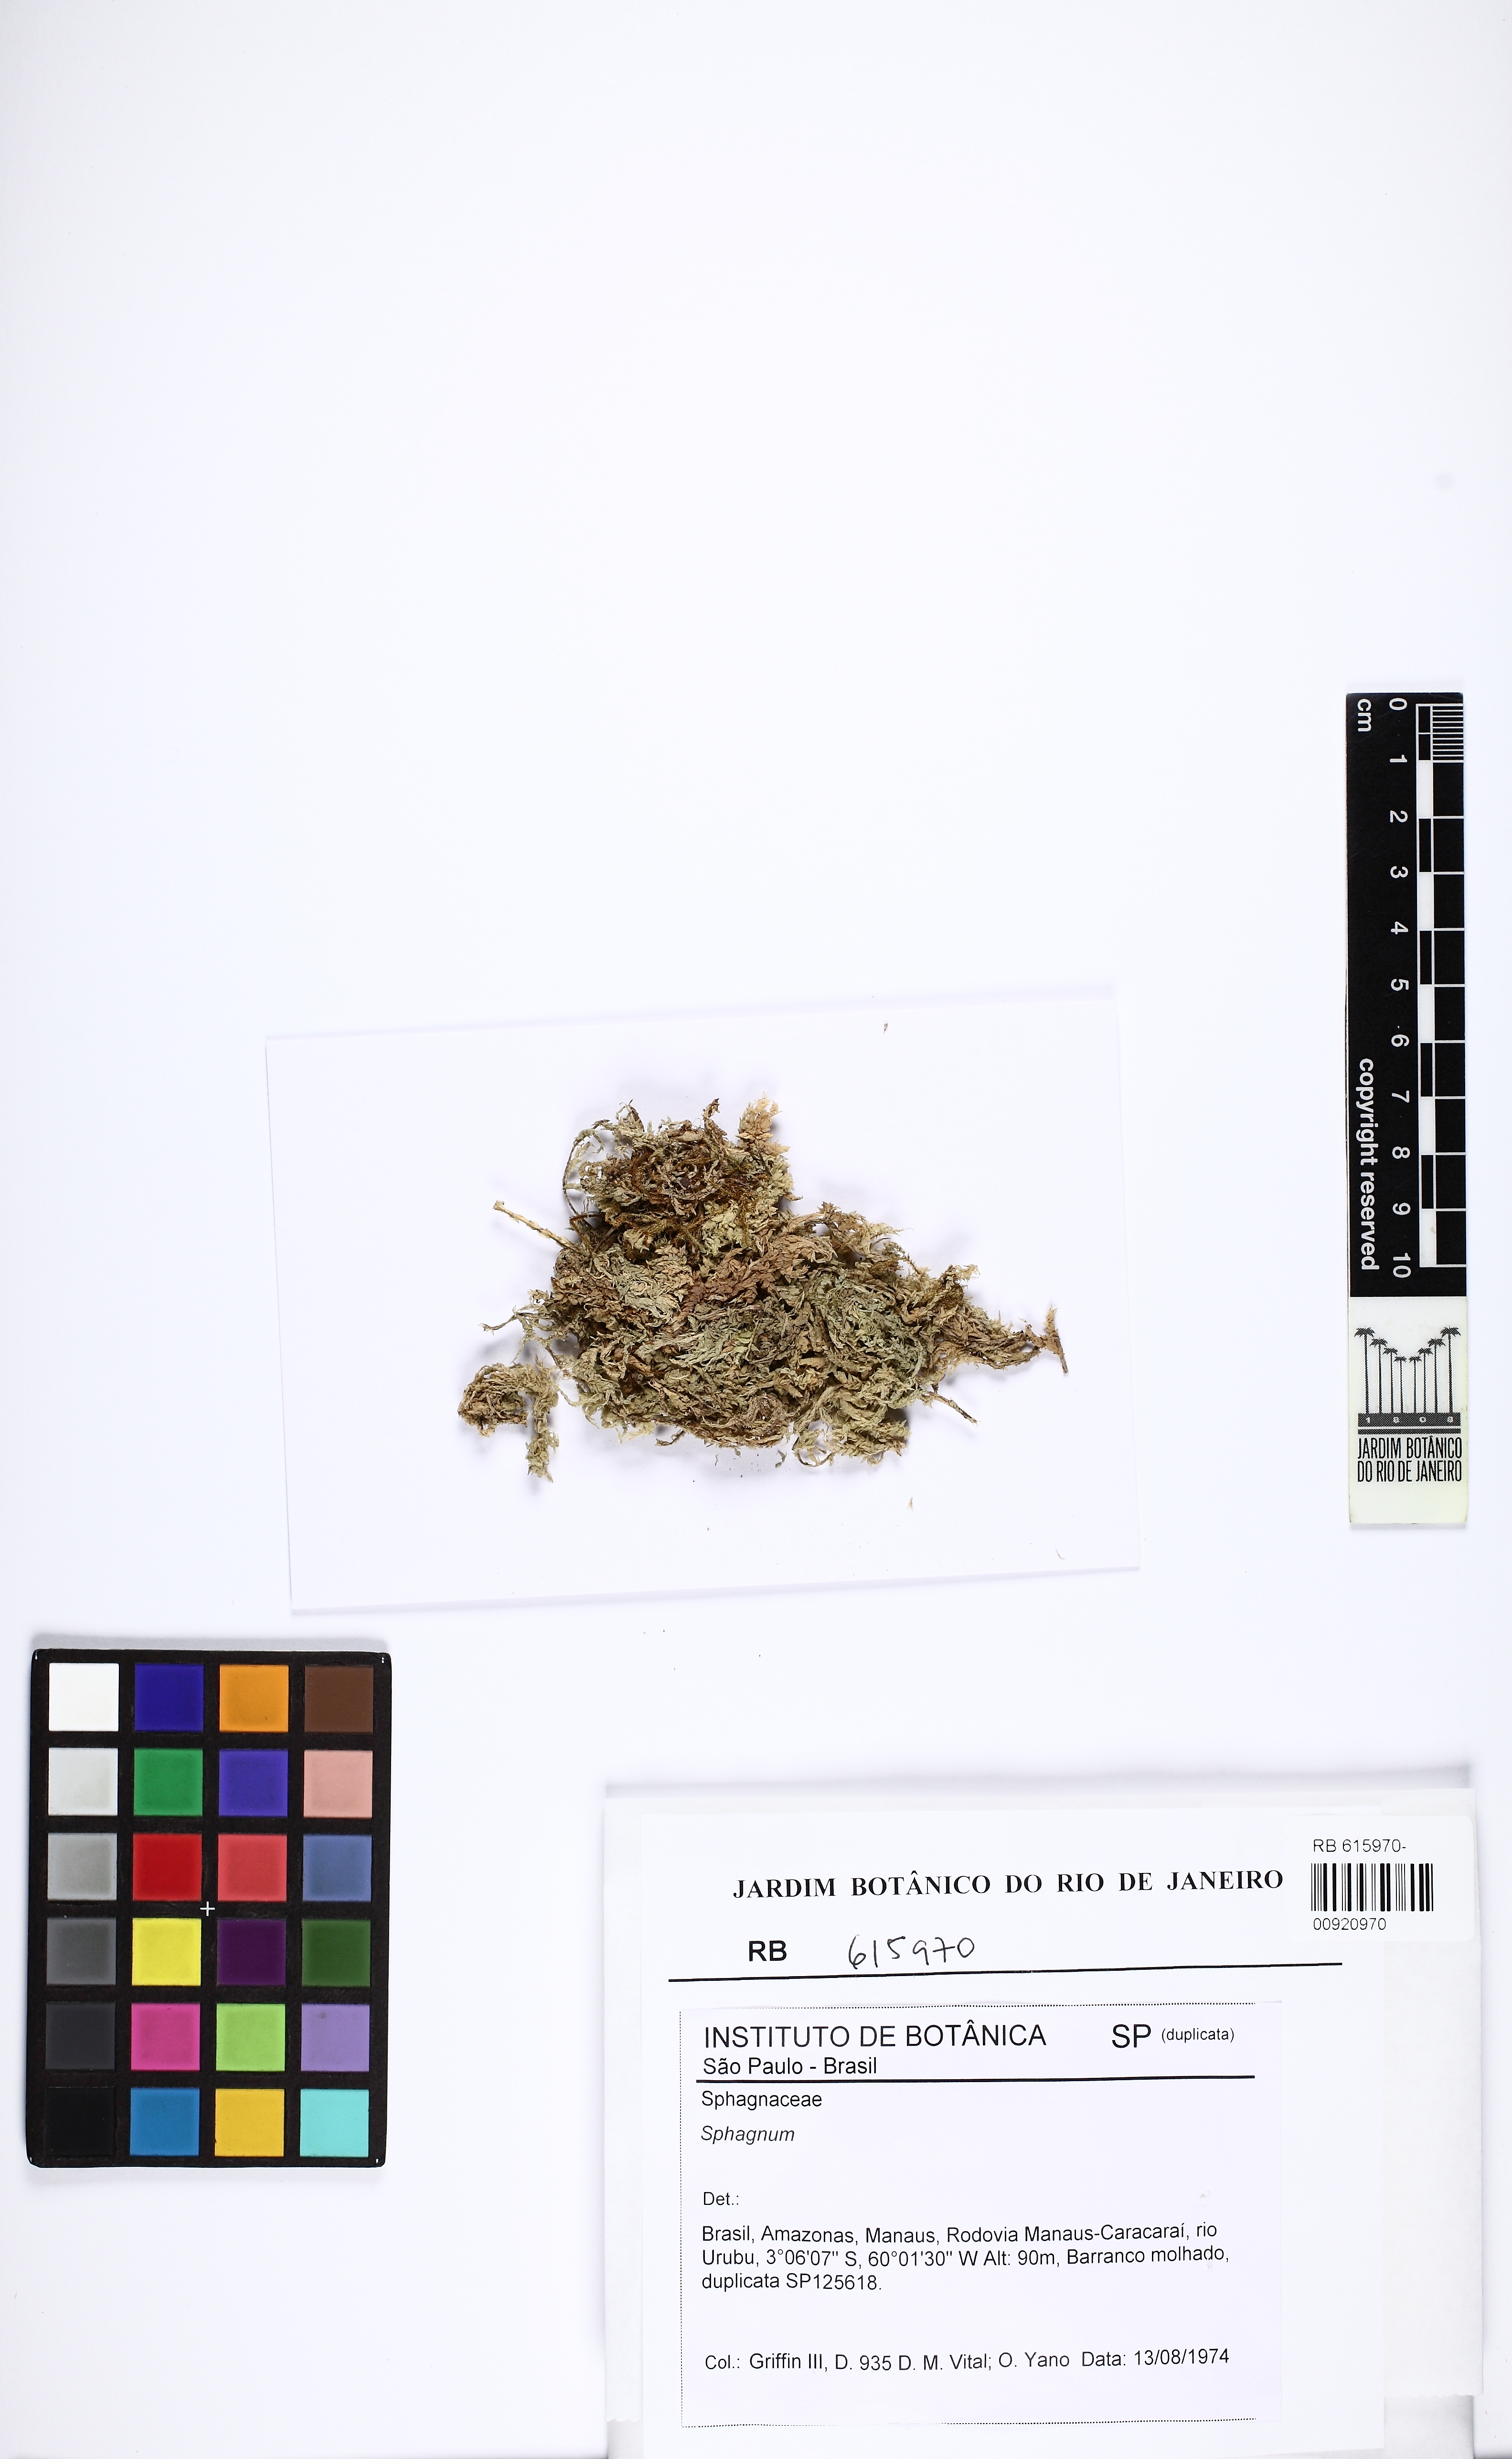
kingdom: Plantae
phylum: Bryophyta
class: Sphagnopsida
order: Sphagnales
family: Sphagnaceae
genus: Sphagnum
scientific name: Sphagnum brachybolax
